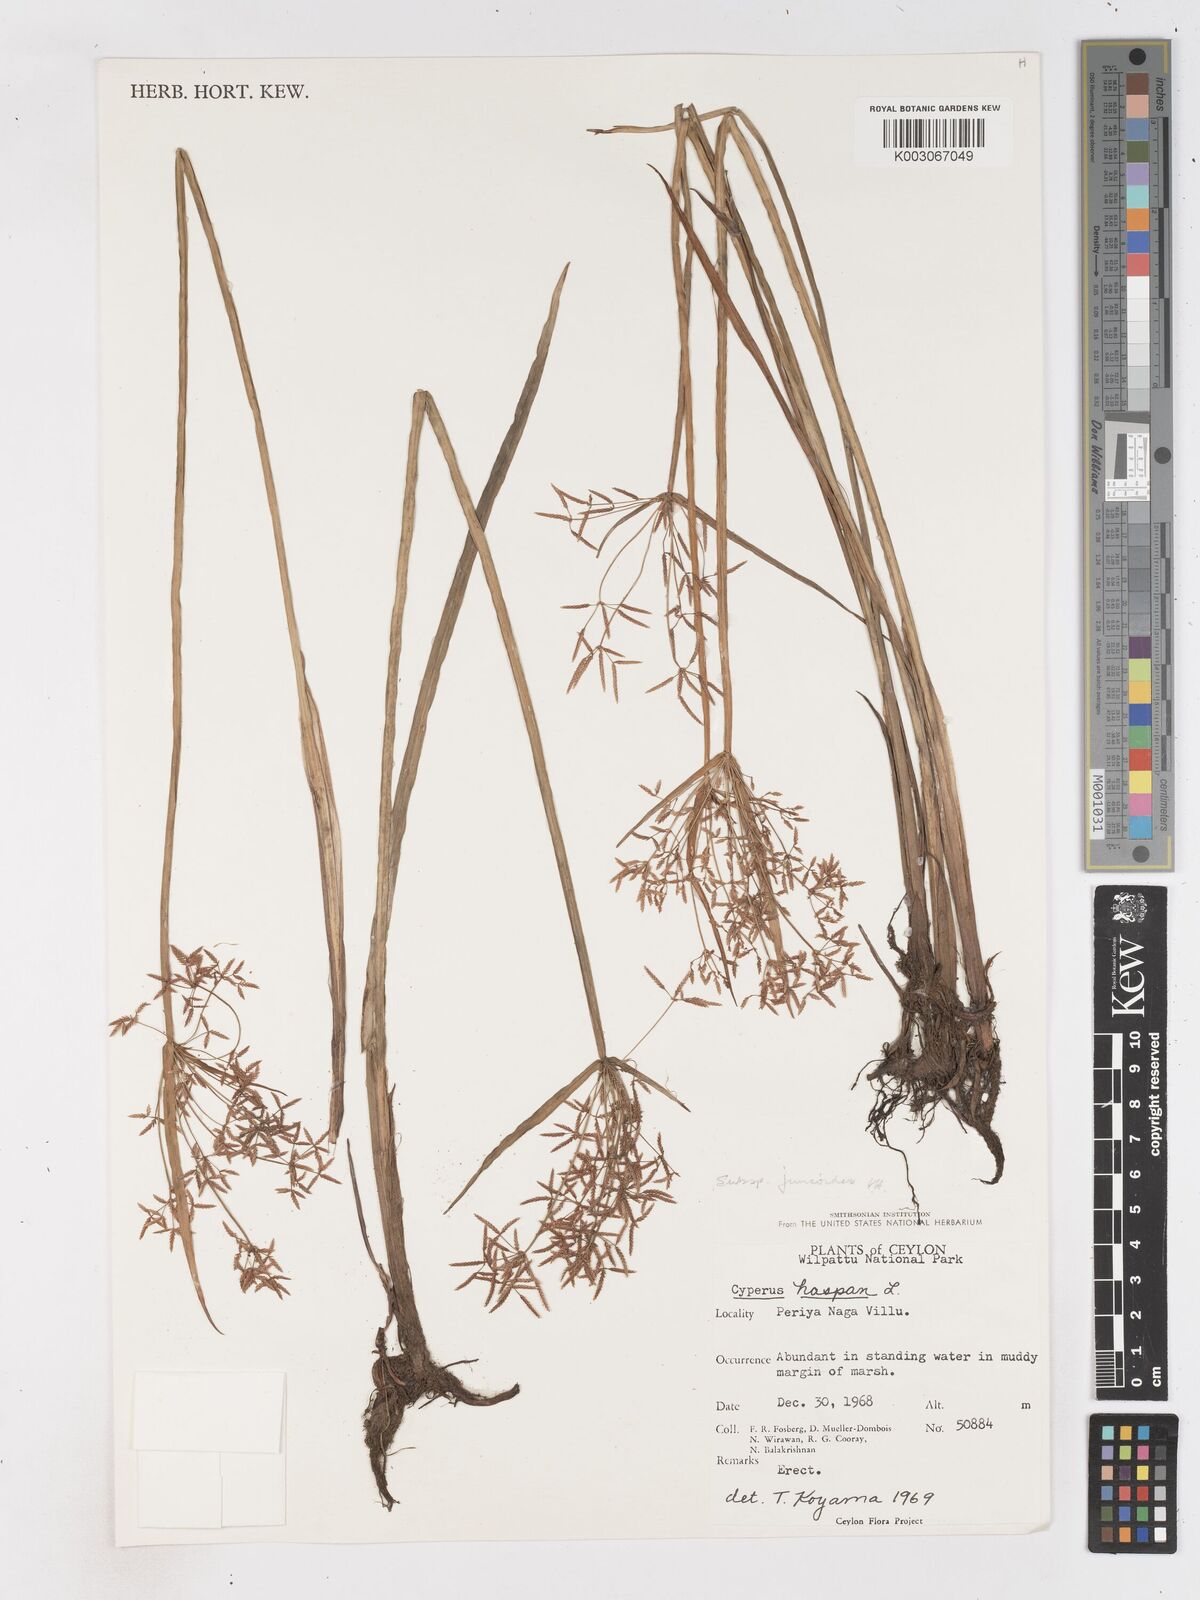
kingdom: Plantae
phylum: Tracheophyta
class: Liliopsida
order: Poales
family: Cyperaceae
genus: Cyperus
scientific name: Cyperus haspan
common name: Haspan flatsedge
